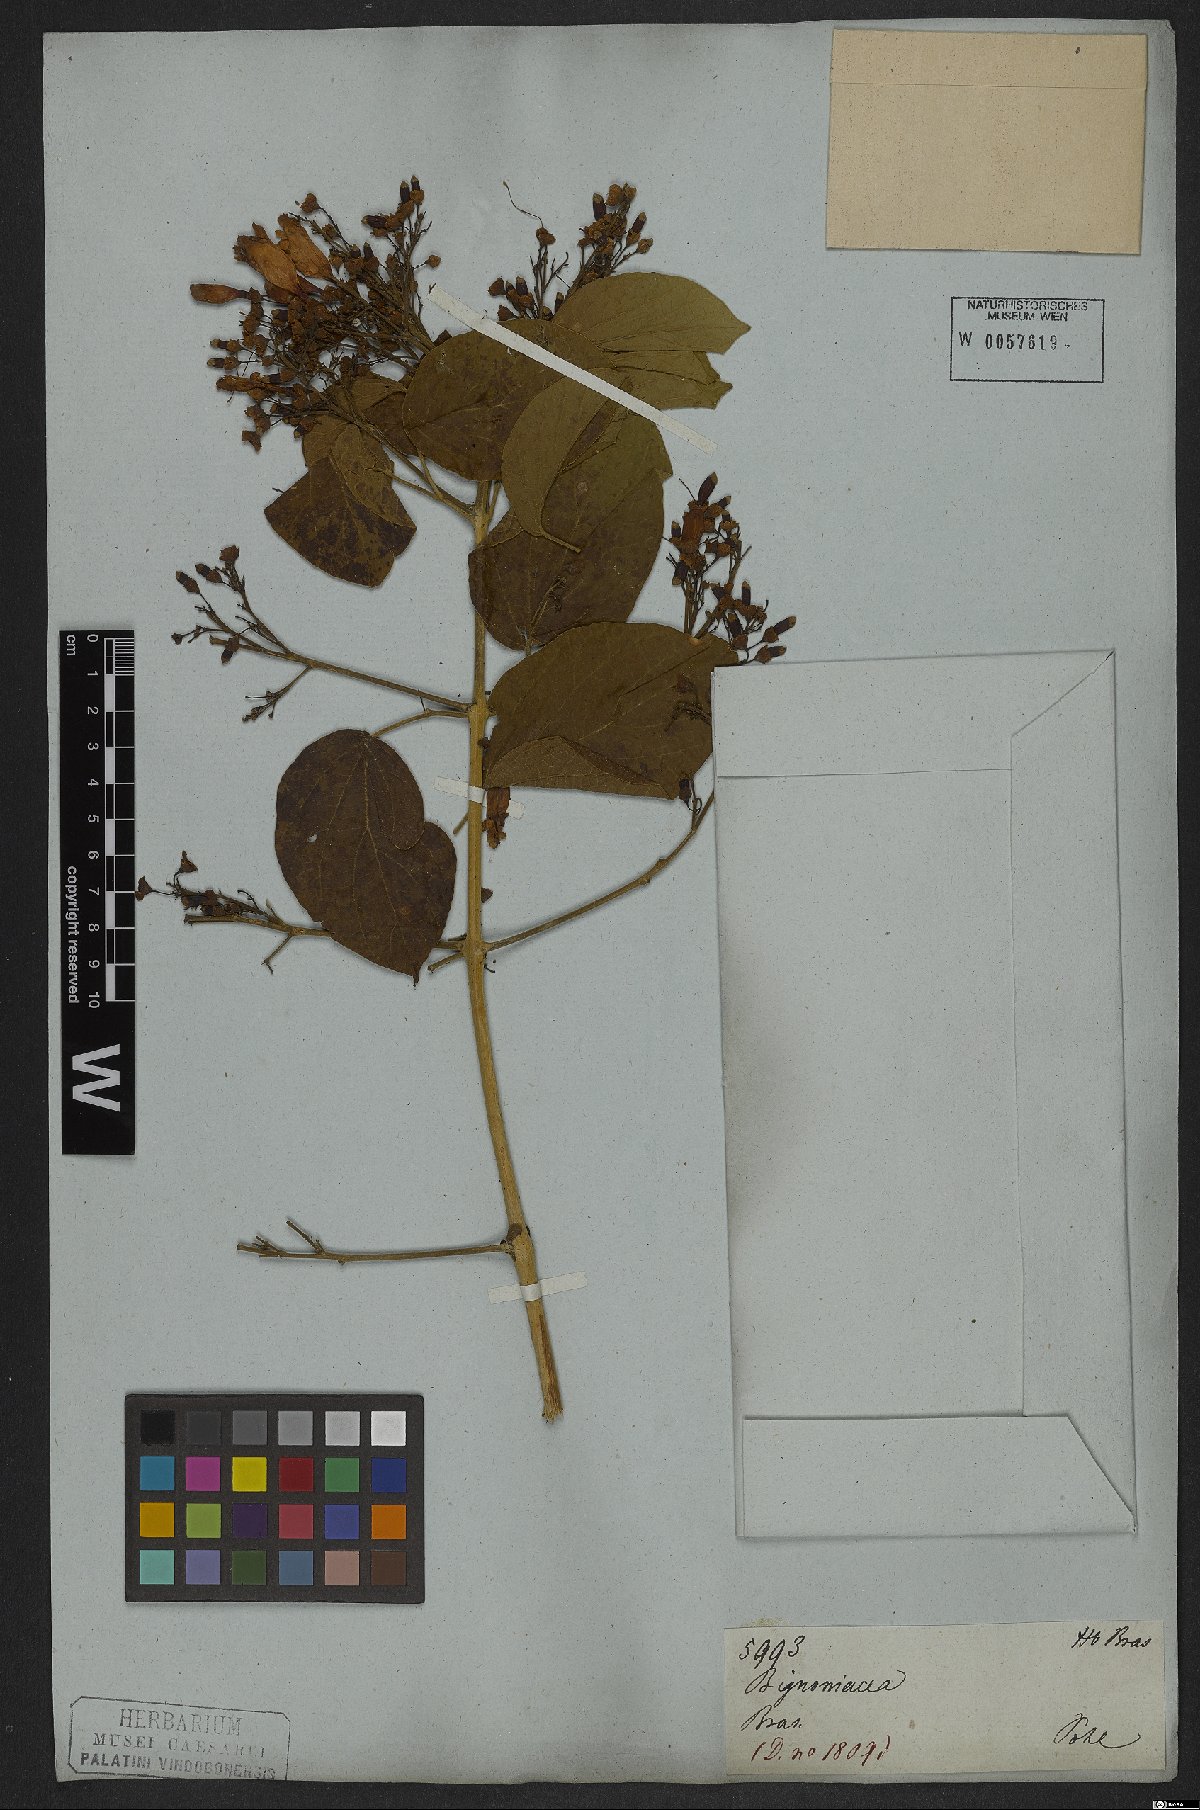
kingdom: Plantae
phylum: Tracheophyta
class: Magnoliopsida
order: Lamiales
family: Bignoniaceae
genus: Fridericia
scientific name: Fridericia leucopogon
